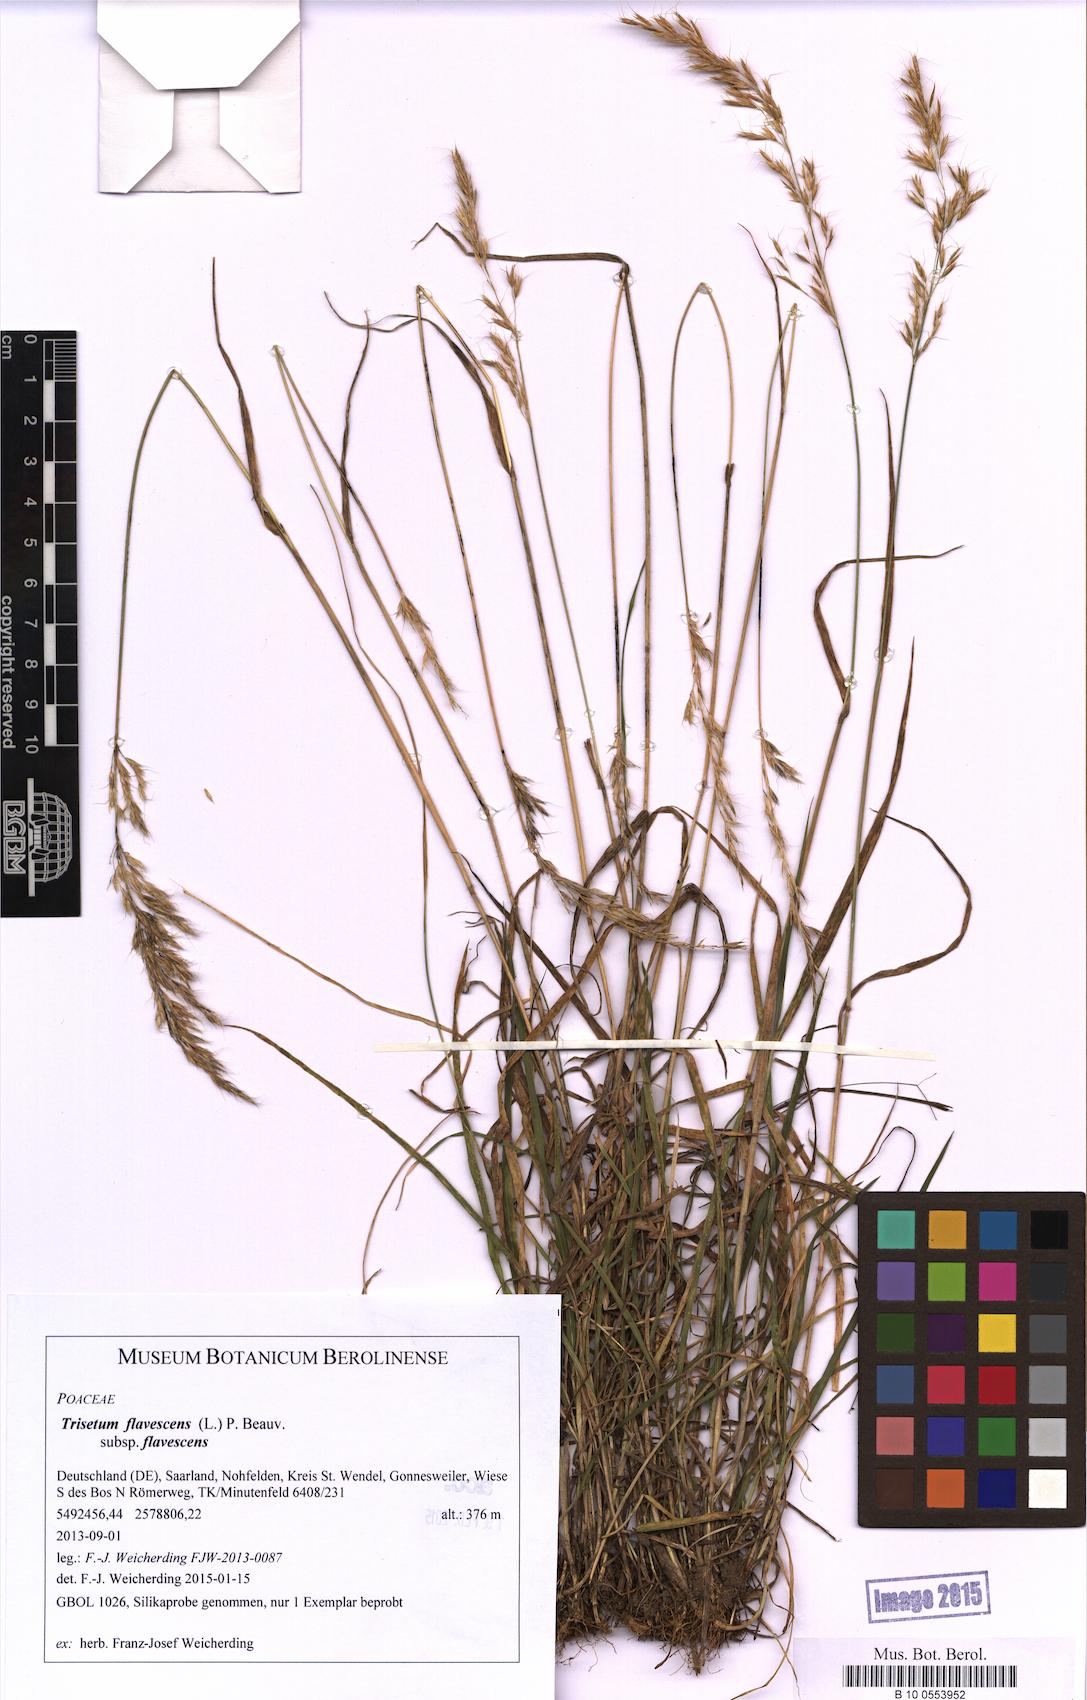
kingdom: Plantae
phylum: Tracheophyta
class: Liliopsida
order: Poales
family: Poaceae
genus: Trisetum
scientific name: Trisetum flavescens
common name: Yellow oat-grass
